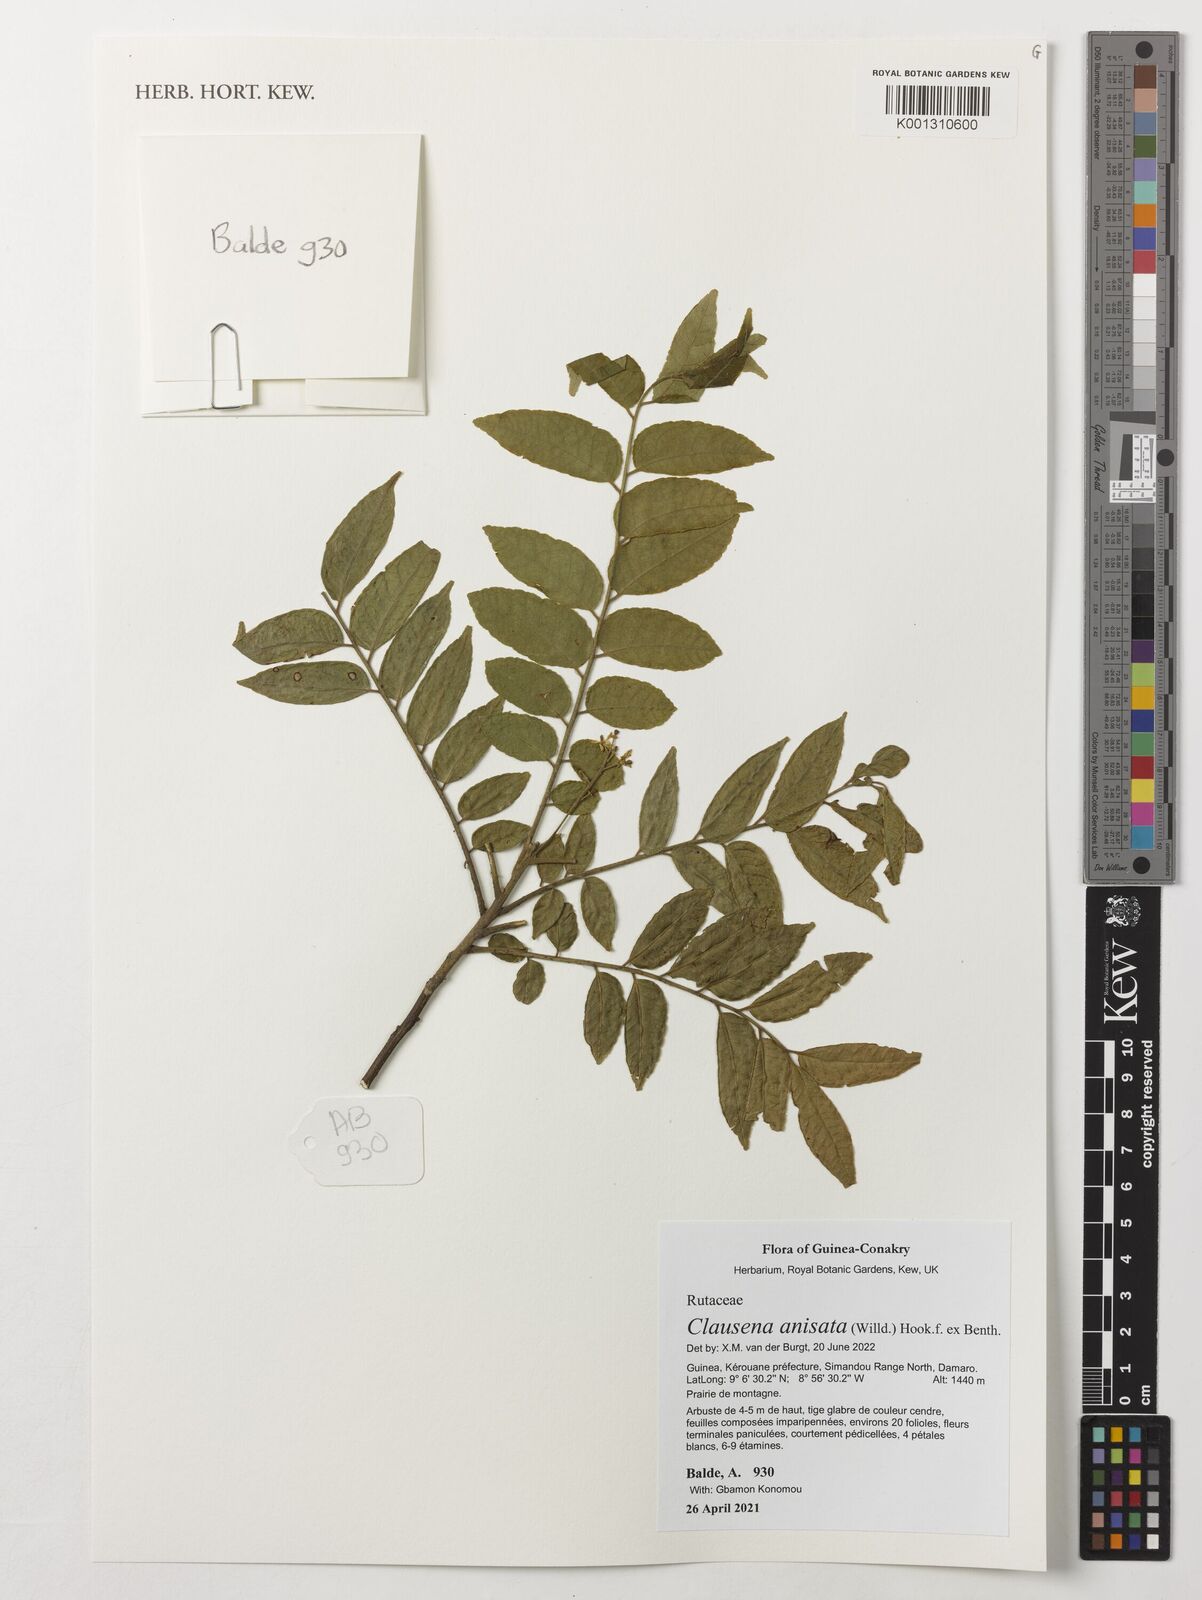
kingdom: Plantae
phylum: Tracheophyta
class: Magnoliopsida
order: Sapindales
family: Rutaceae
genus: Clausena
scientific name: Clausena anisata
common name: Horsewood
